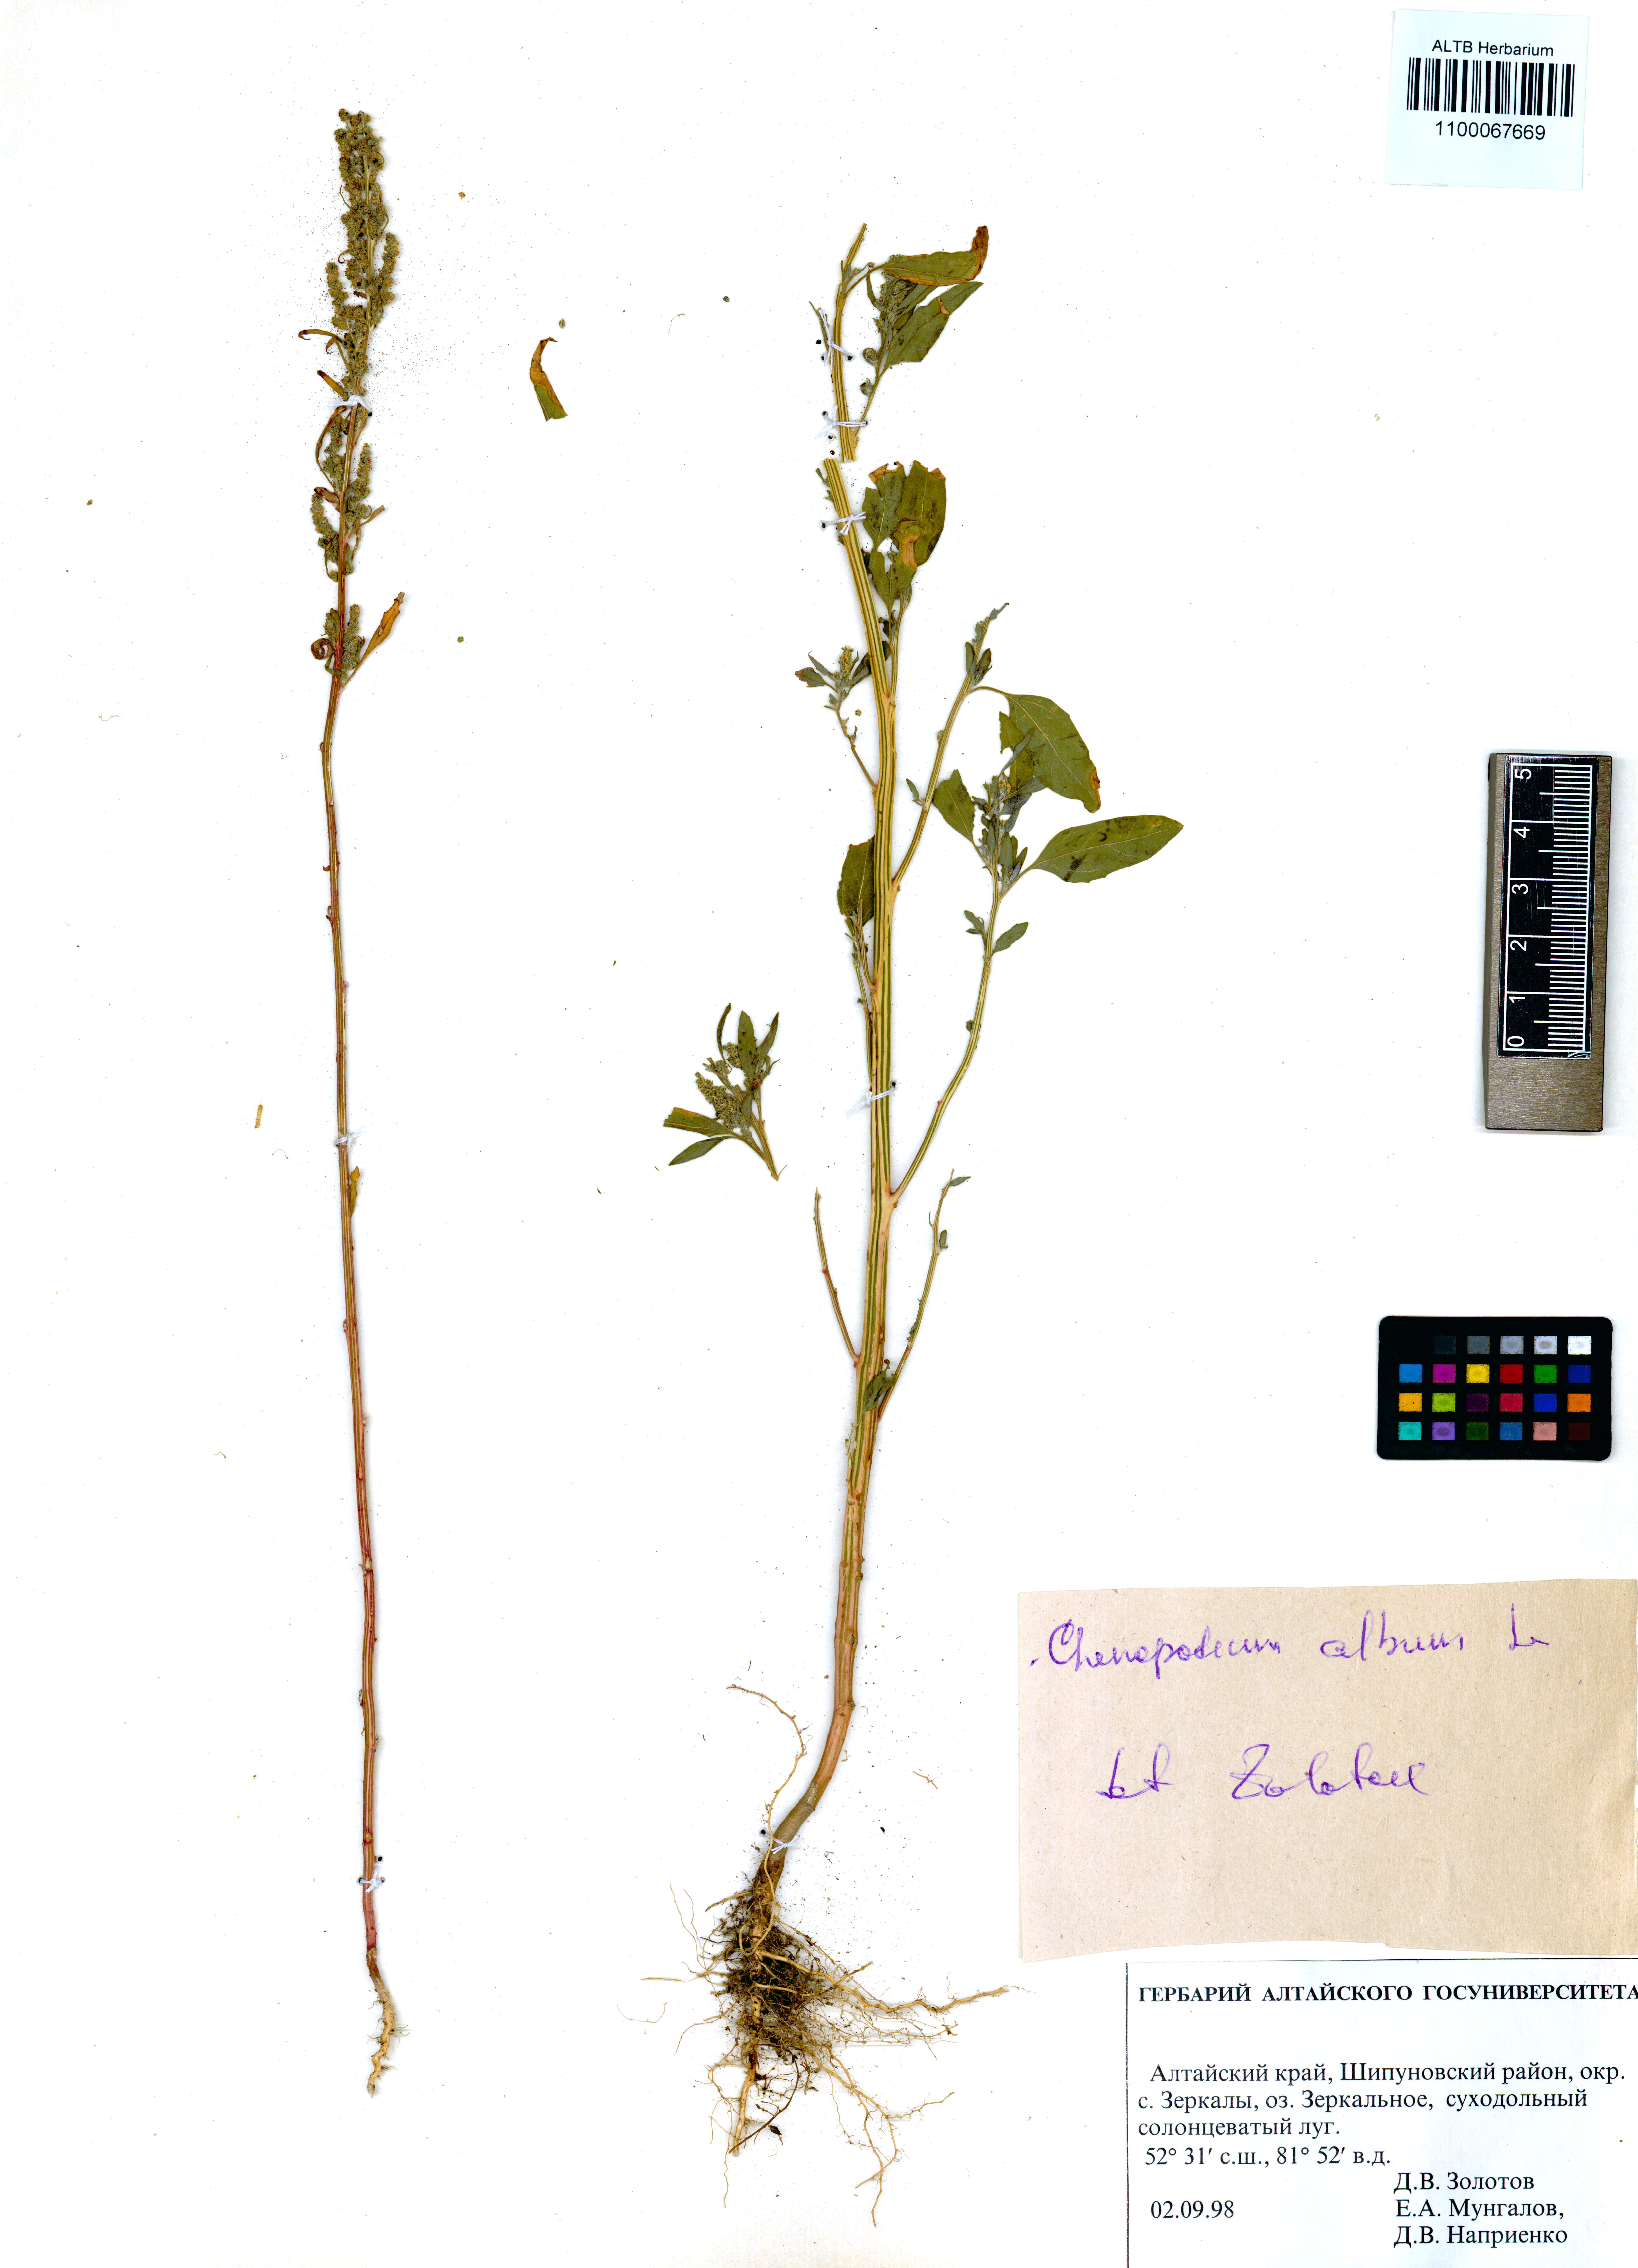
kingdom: Plantae
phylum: Tracheophyta
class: Magnoliopsida
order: Caryophyllales
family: Amaranthaceae
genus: Chenopodium
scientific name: Chenopodium album
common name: Fat-hen
